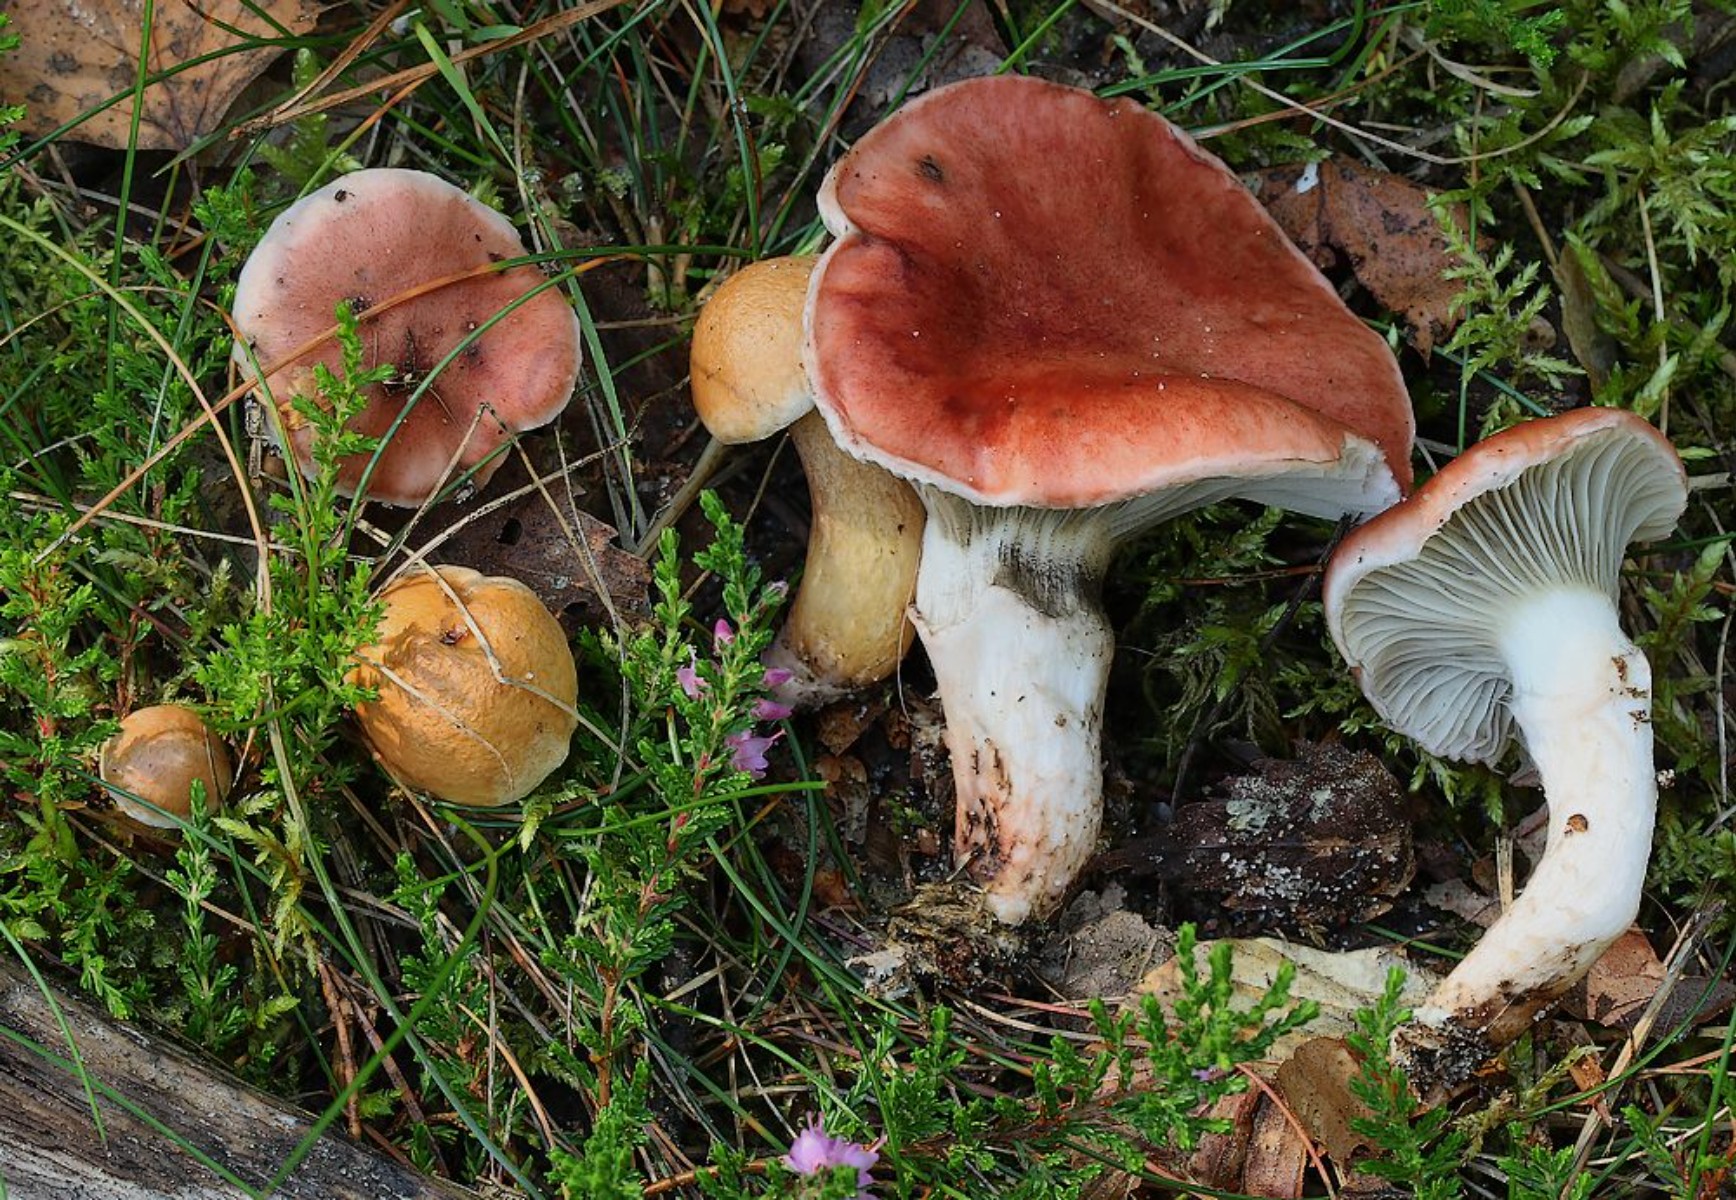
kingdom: Fungi
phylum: Basidiomycota
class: Agaricomycetes
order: Boletales
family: Gomphidiaceae
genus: Gomphidius
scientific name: Gomphidius roseus
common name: rosenrød slimslør
